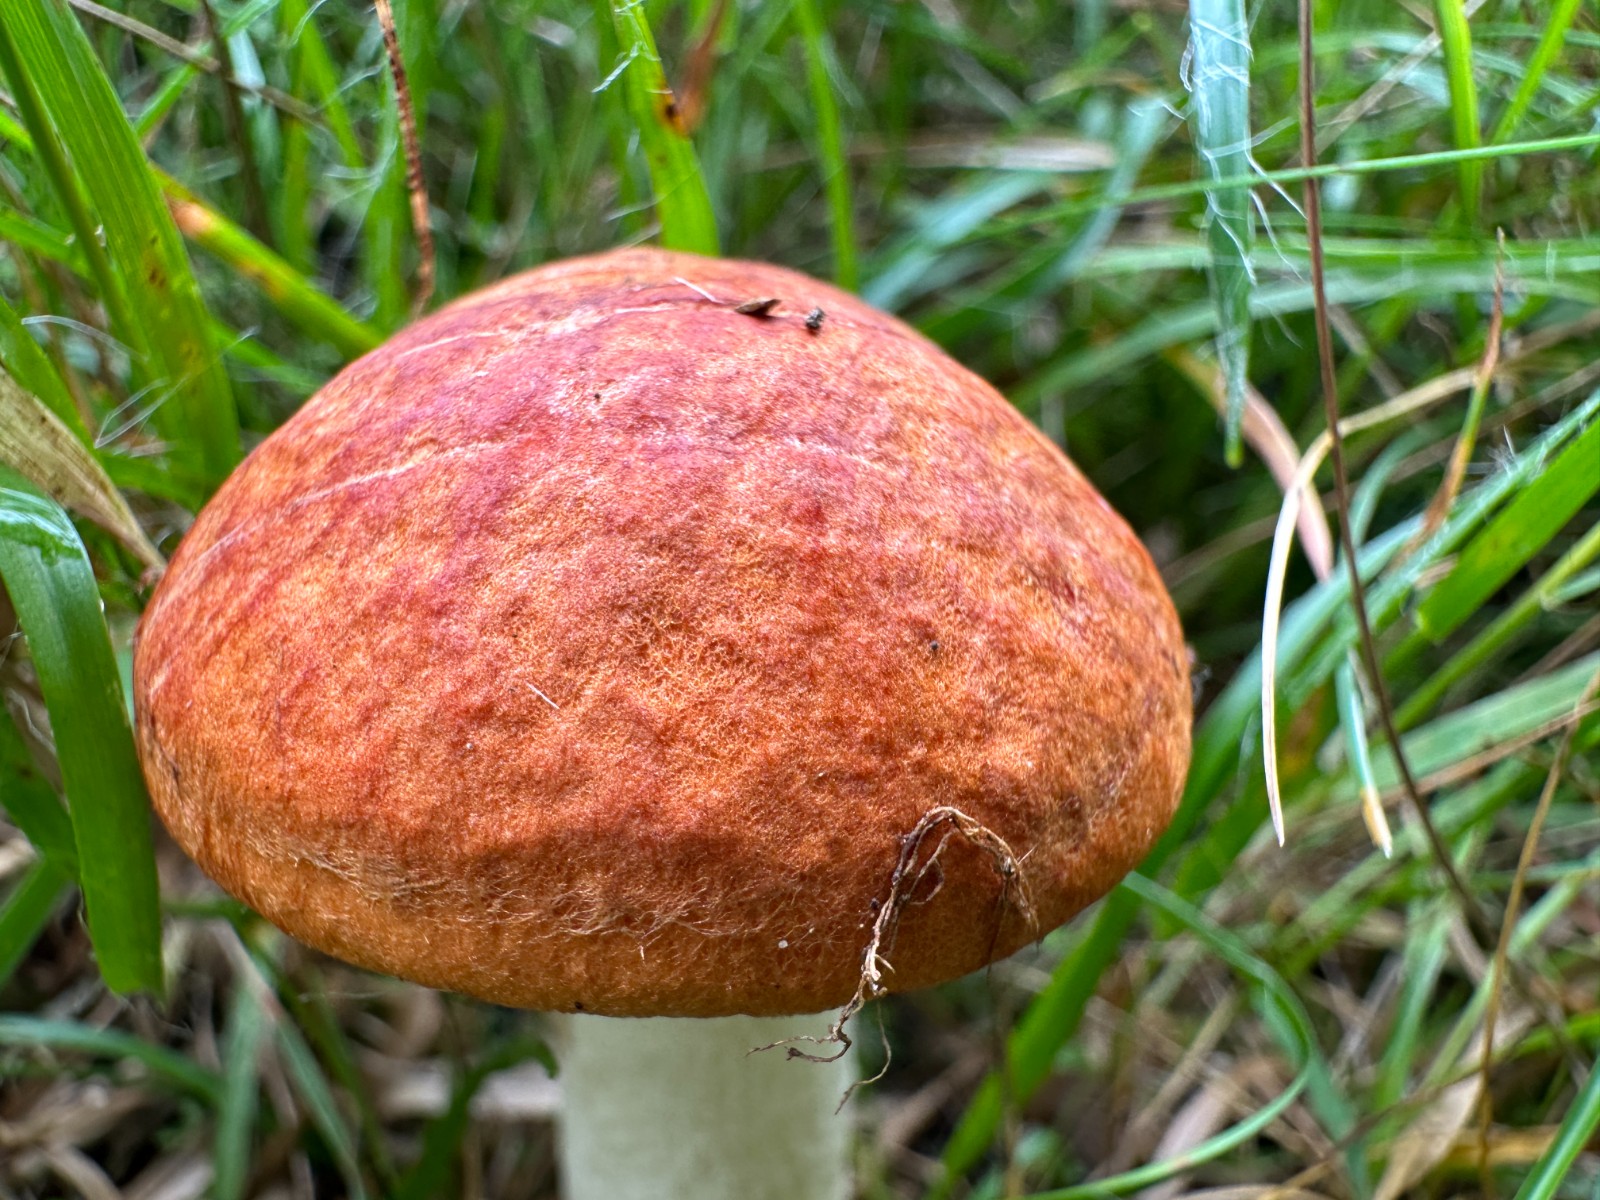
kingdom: Fungi
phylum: Basidiomycota
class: Agaricomycetes
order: Boletales
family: Boletaceae
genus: Leccinum
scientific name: Leccinum albostipitatum
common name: aspe-skælrørhat
